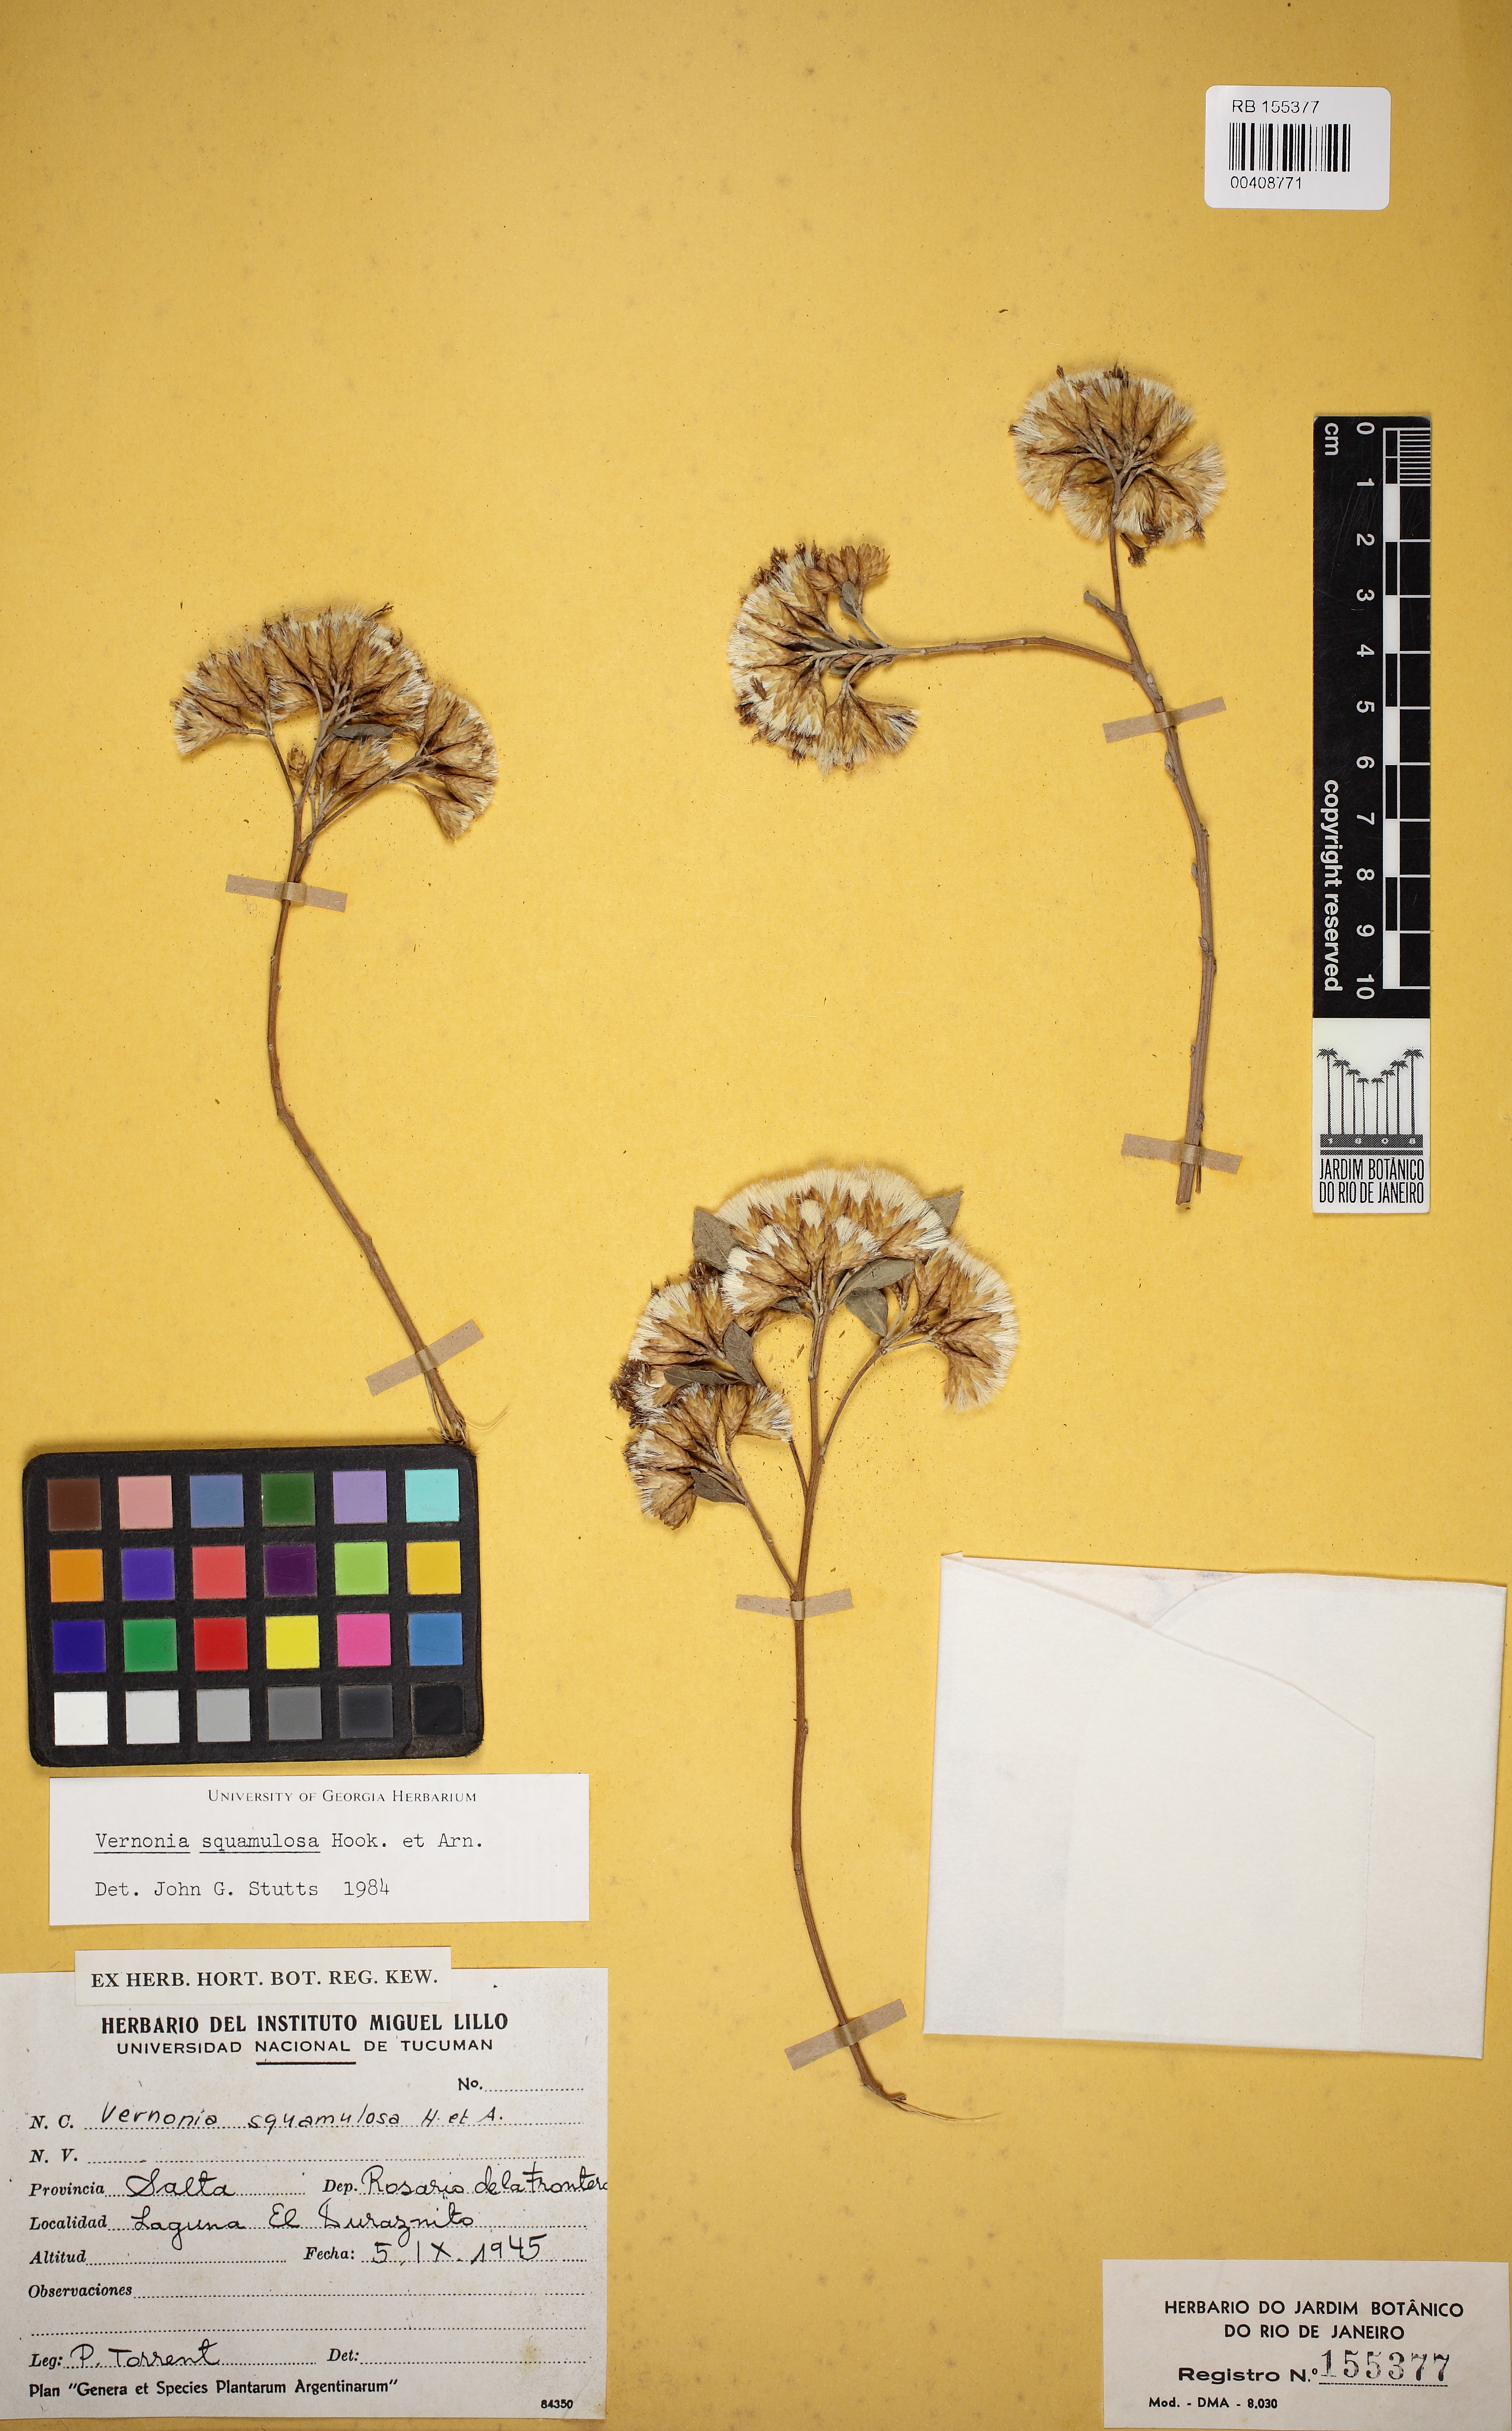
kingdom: Plantae
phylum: Tracheophyta
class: Magnoliopsida
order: Asterales
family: Asteraceae
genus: Vernonanthura
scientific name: Vernonanthura squamulosa
